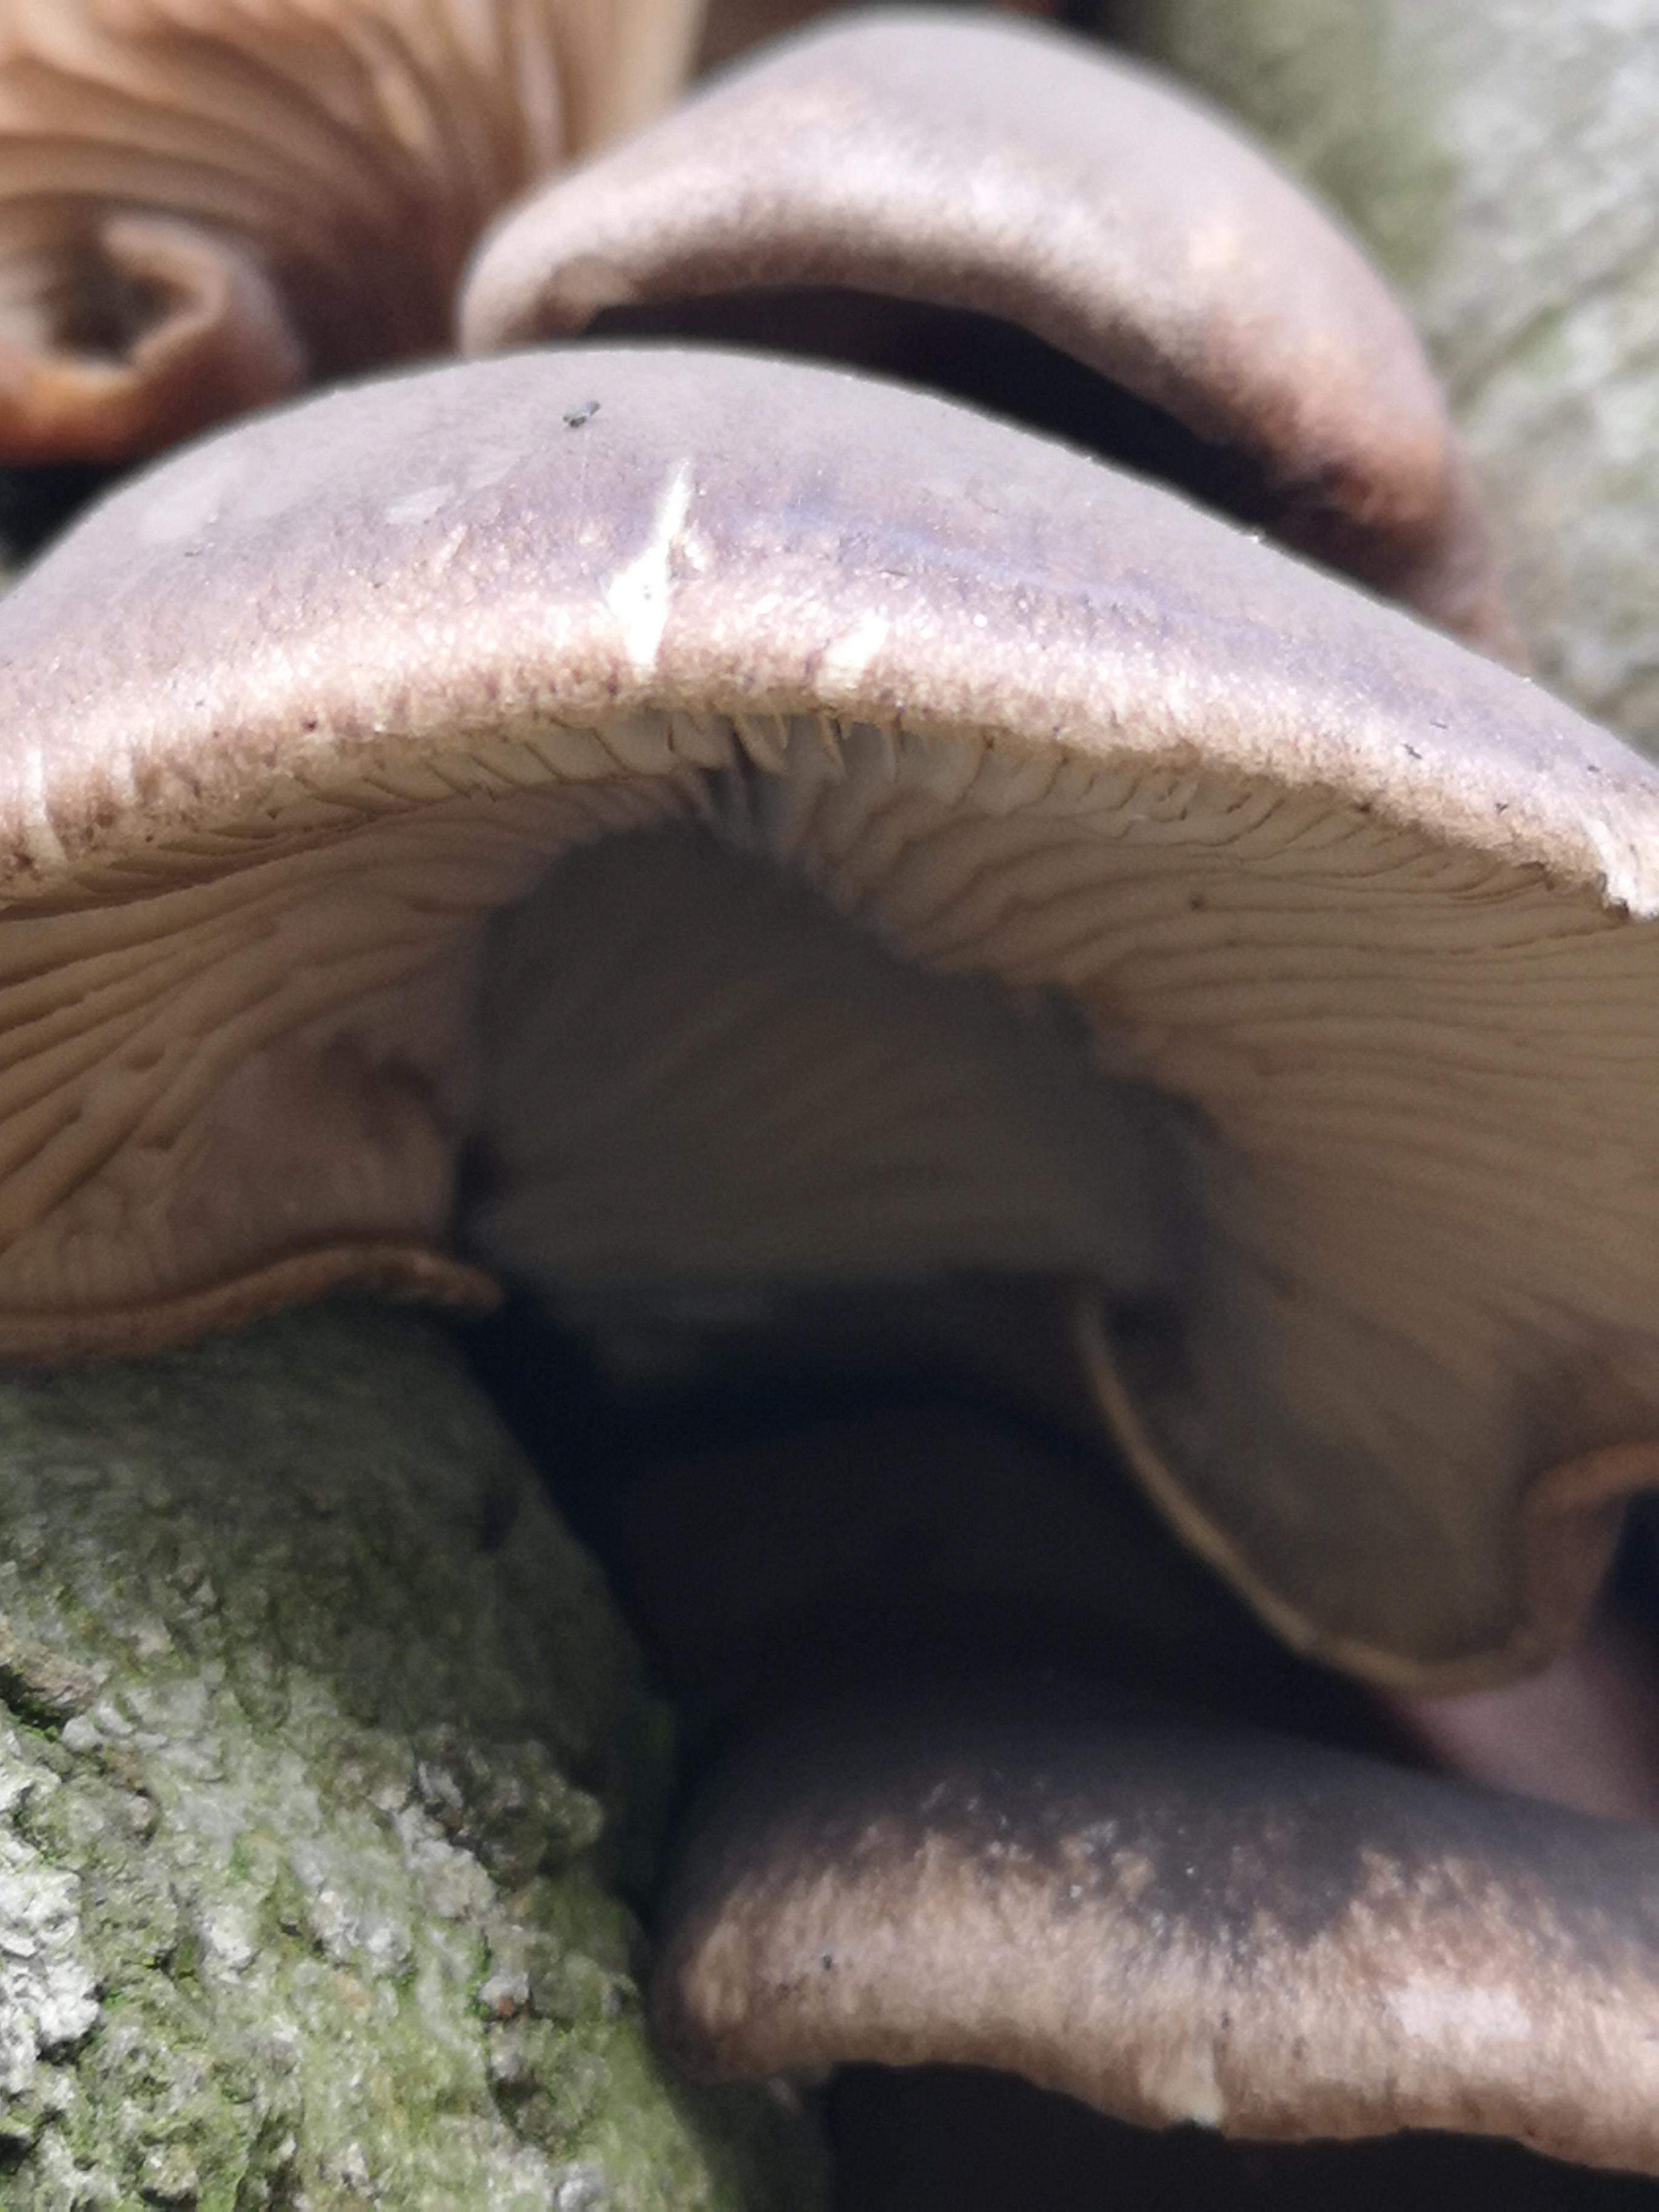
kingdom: Fungi
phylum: Basidiomycota
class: Agaricomycetes
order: Agaricales
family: Pleurotaceae
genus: Pleurotus
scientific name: Pleurotus ostreatus
